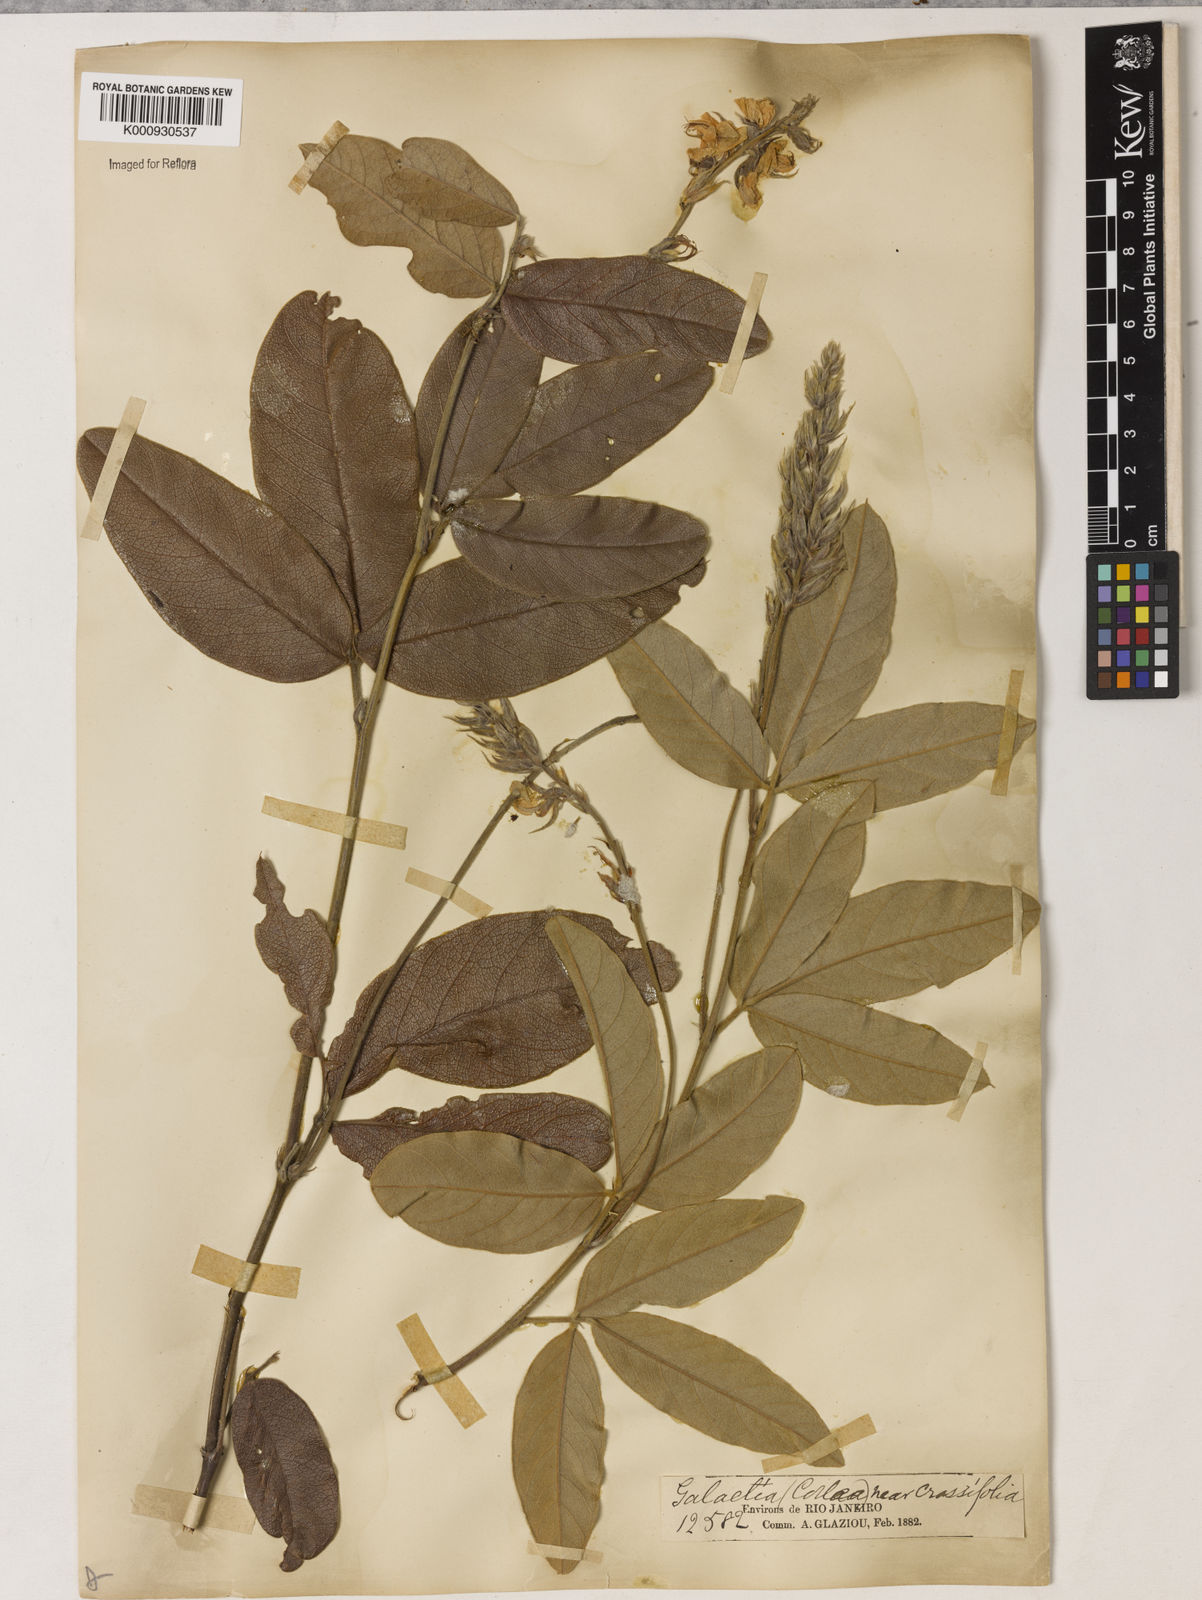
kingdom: Plantae
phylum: Tracheophyta
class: Magnoliopsida
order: Fabales
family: Fabaceae
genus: Betencourtia
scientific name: Betencourtia crassifolia
